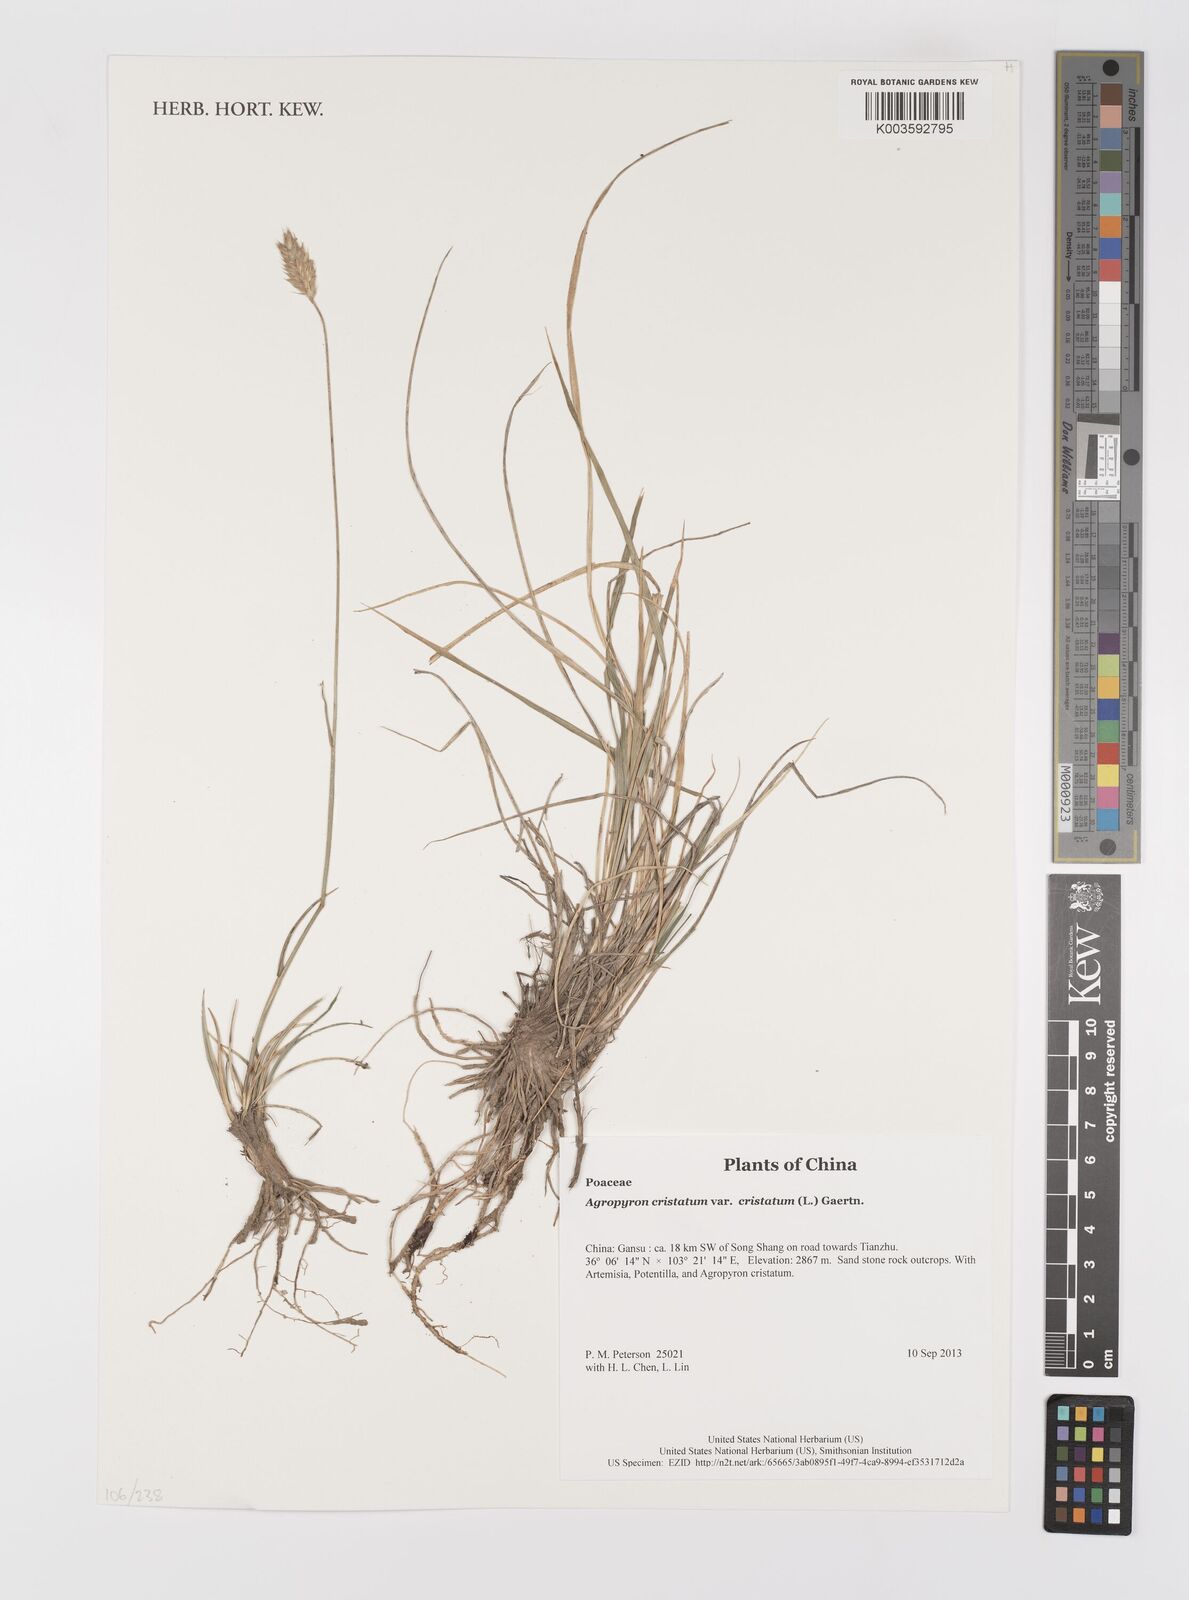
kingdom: Plantae
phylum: Tracheophyta
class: Liliopsida
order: Poales
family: Poaceae
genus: Agropyron
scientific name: Agropyron cristatum
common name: Crested wheatgrass
